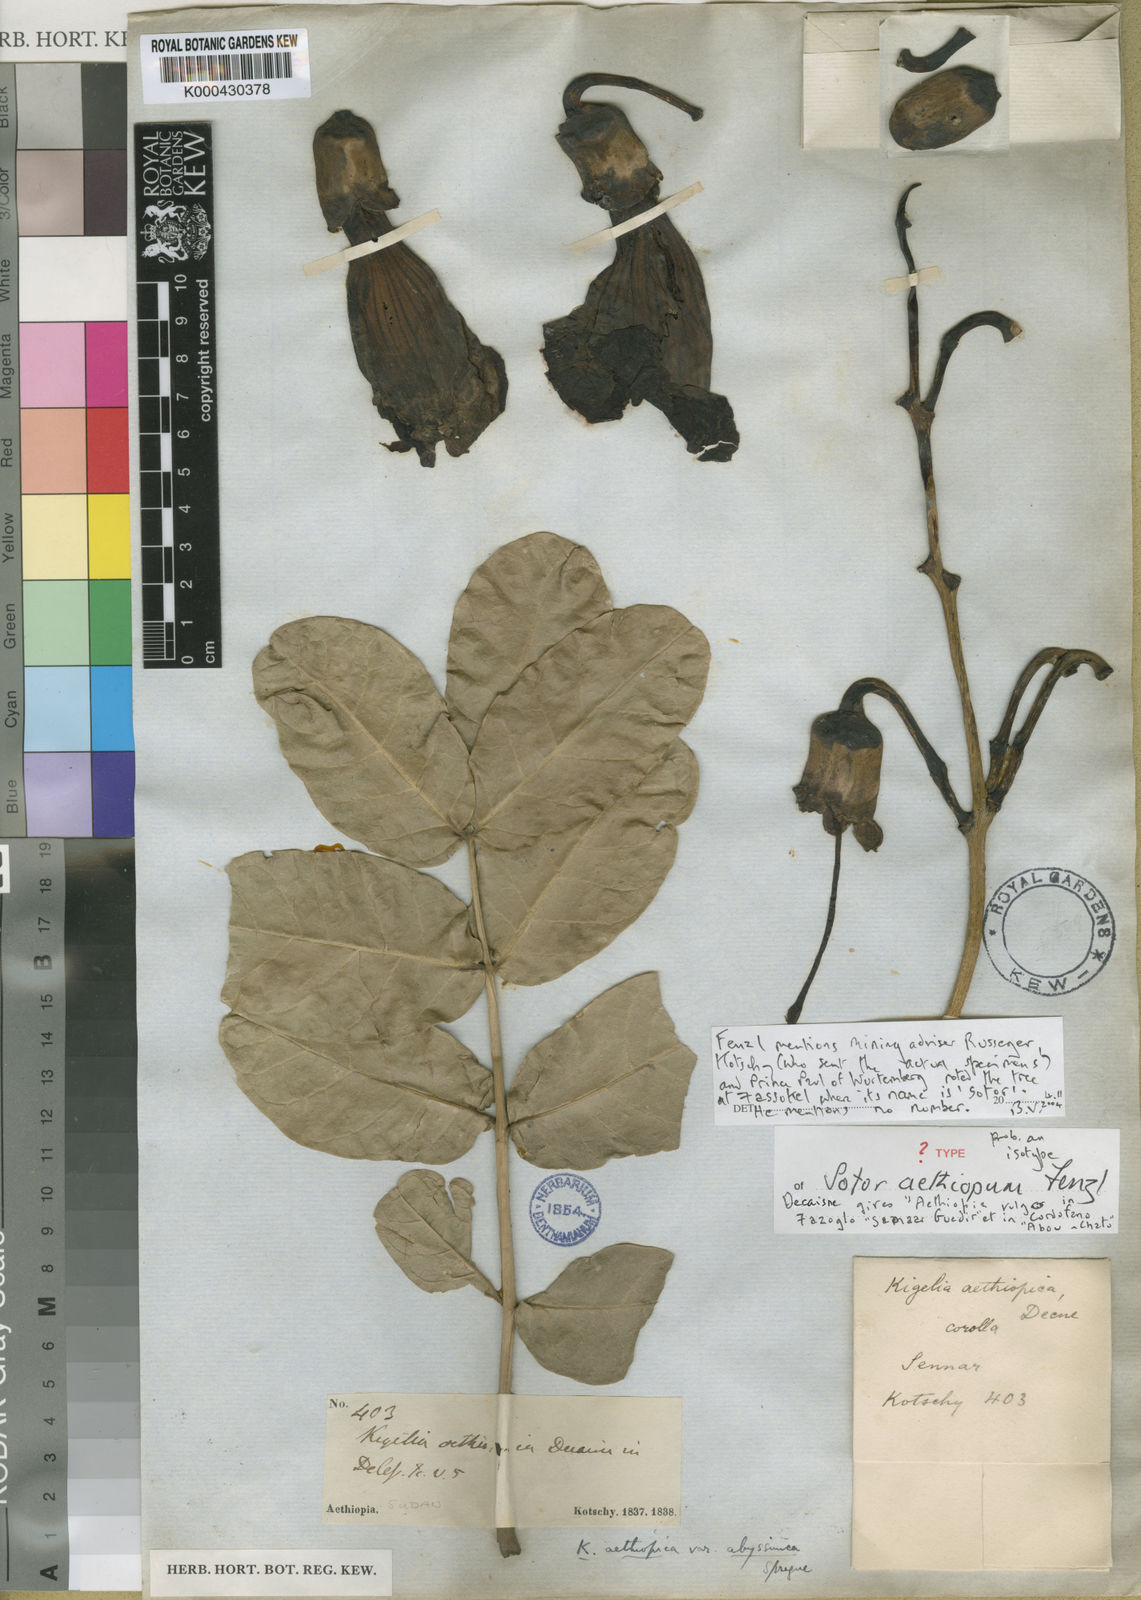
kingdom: Plantae
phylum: Tracheophyta
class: Magnoliopsida
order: Lamiales
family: Bignoniaceae
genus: Kigelia
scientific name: Kigelia africana
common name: Sausage tree
